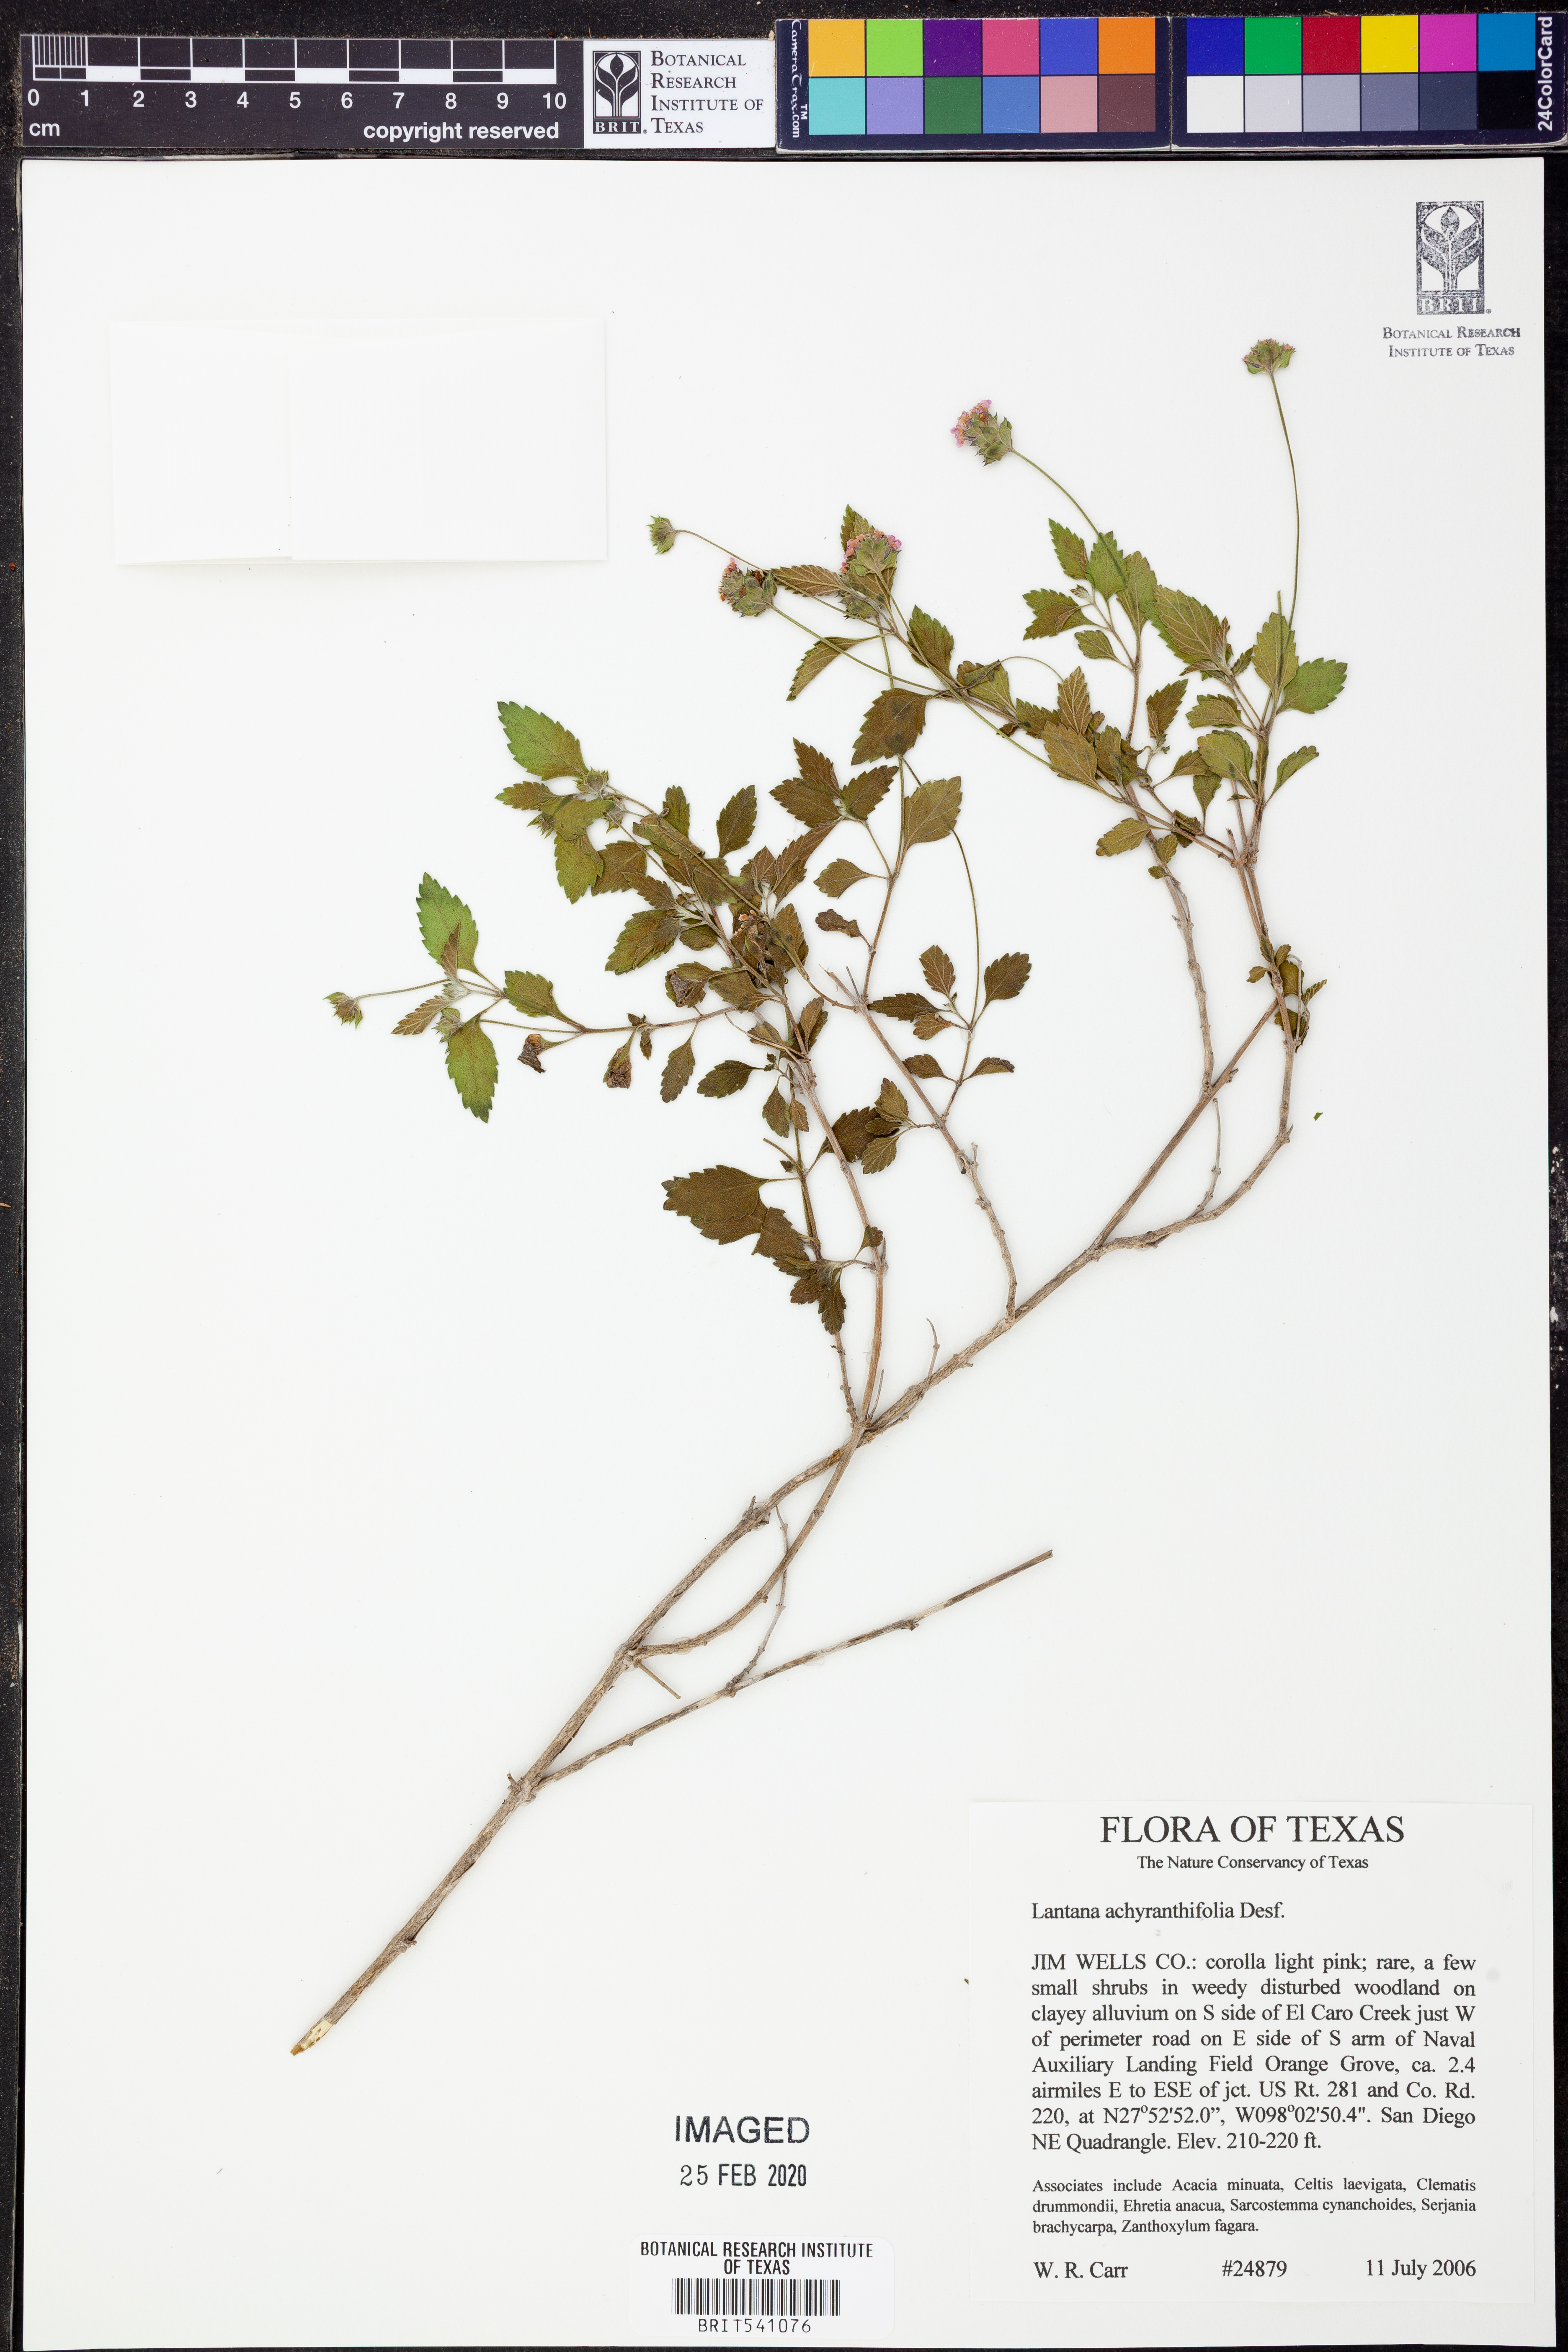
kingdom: Plantae
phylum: Tracheophyta
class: Magnoliopsida
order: Lamiales
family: Verbenaceae
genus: Lantana
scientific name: Lantana achyranthifolia
